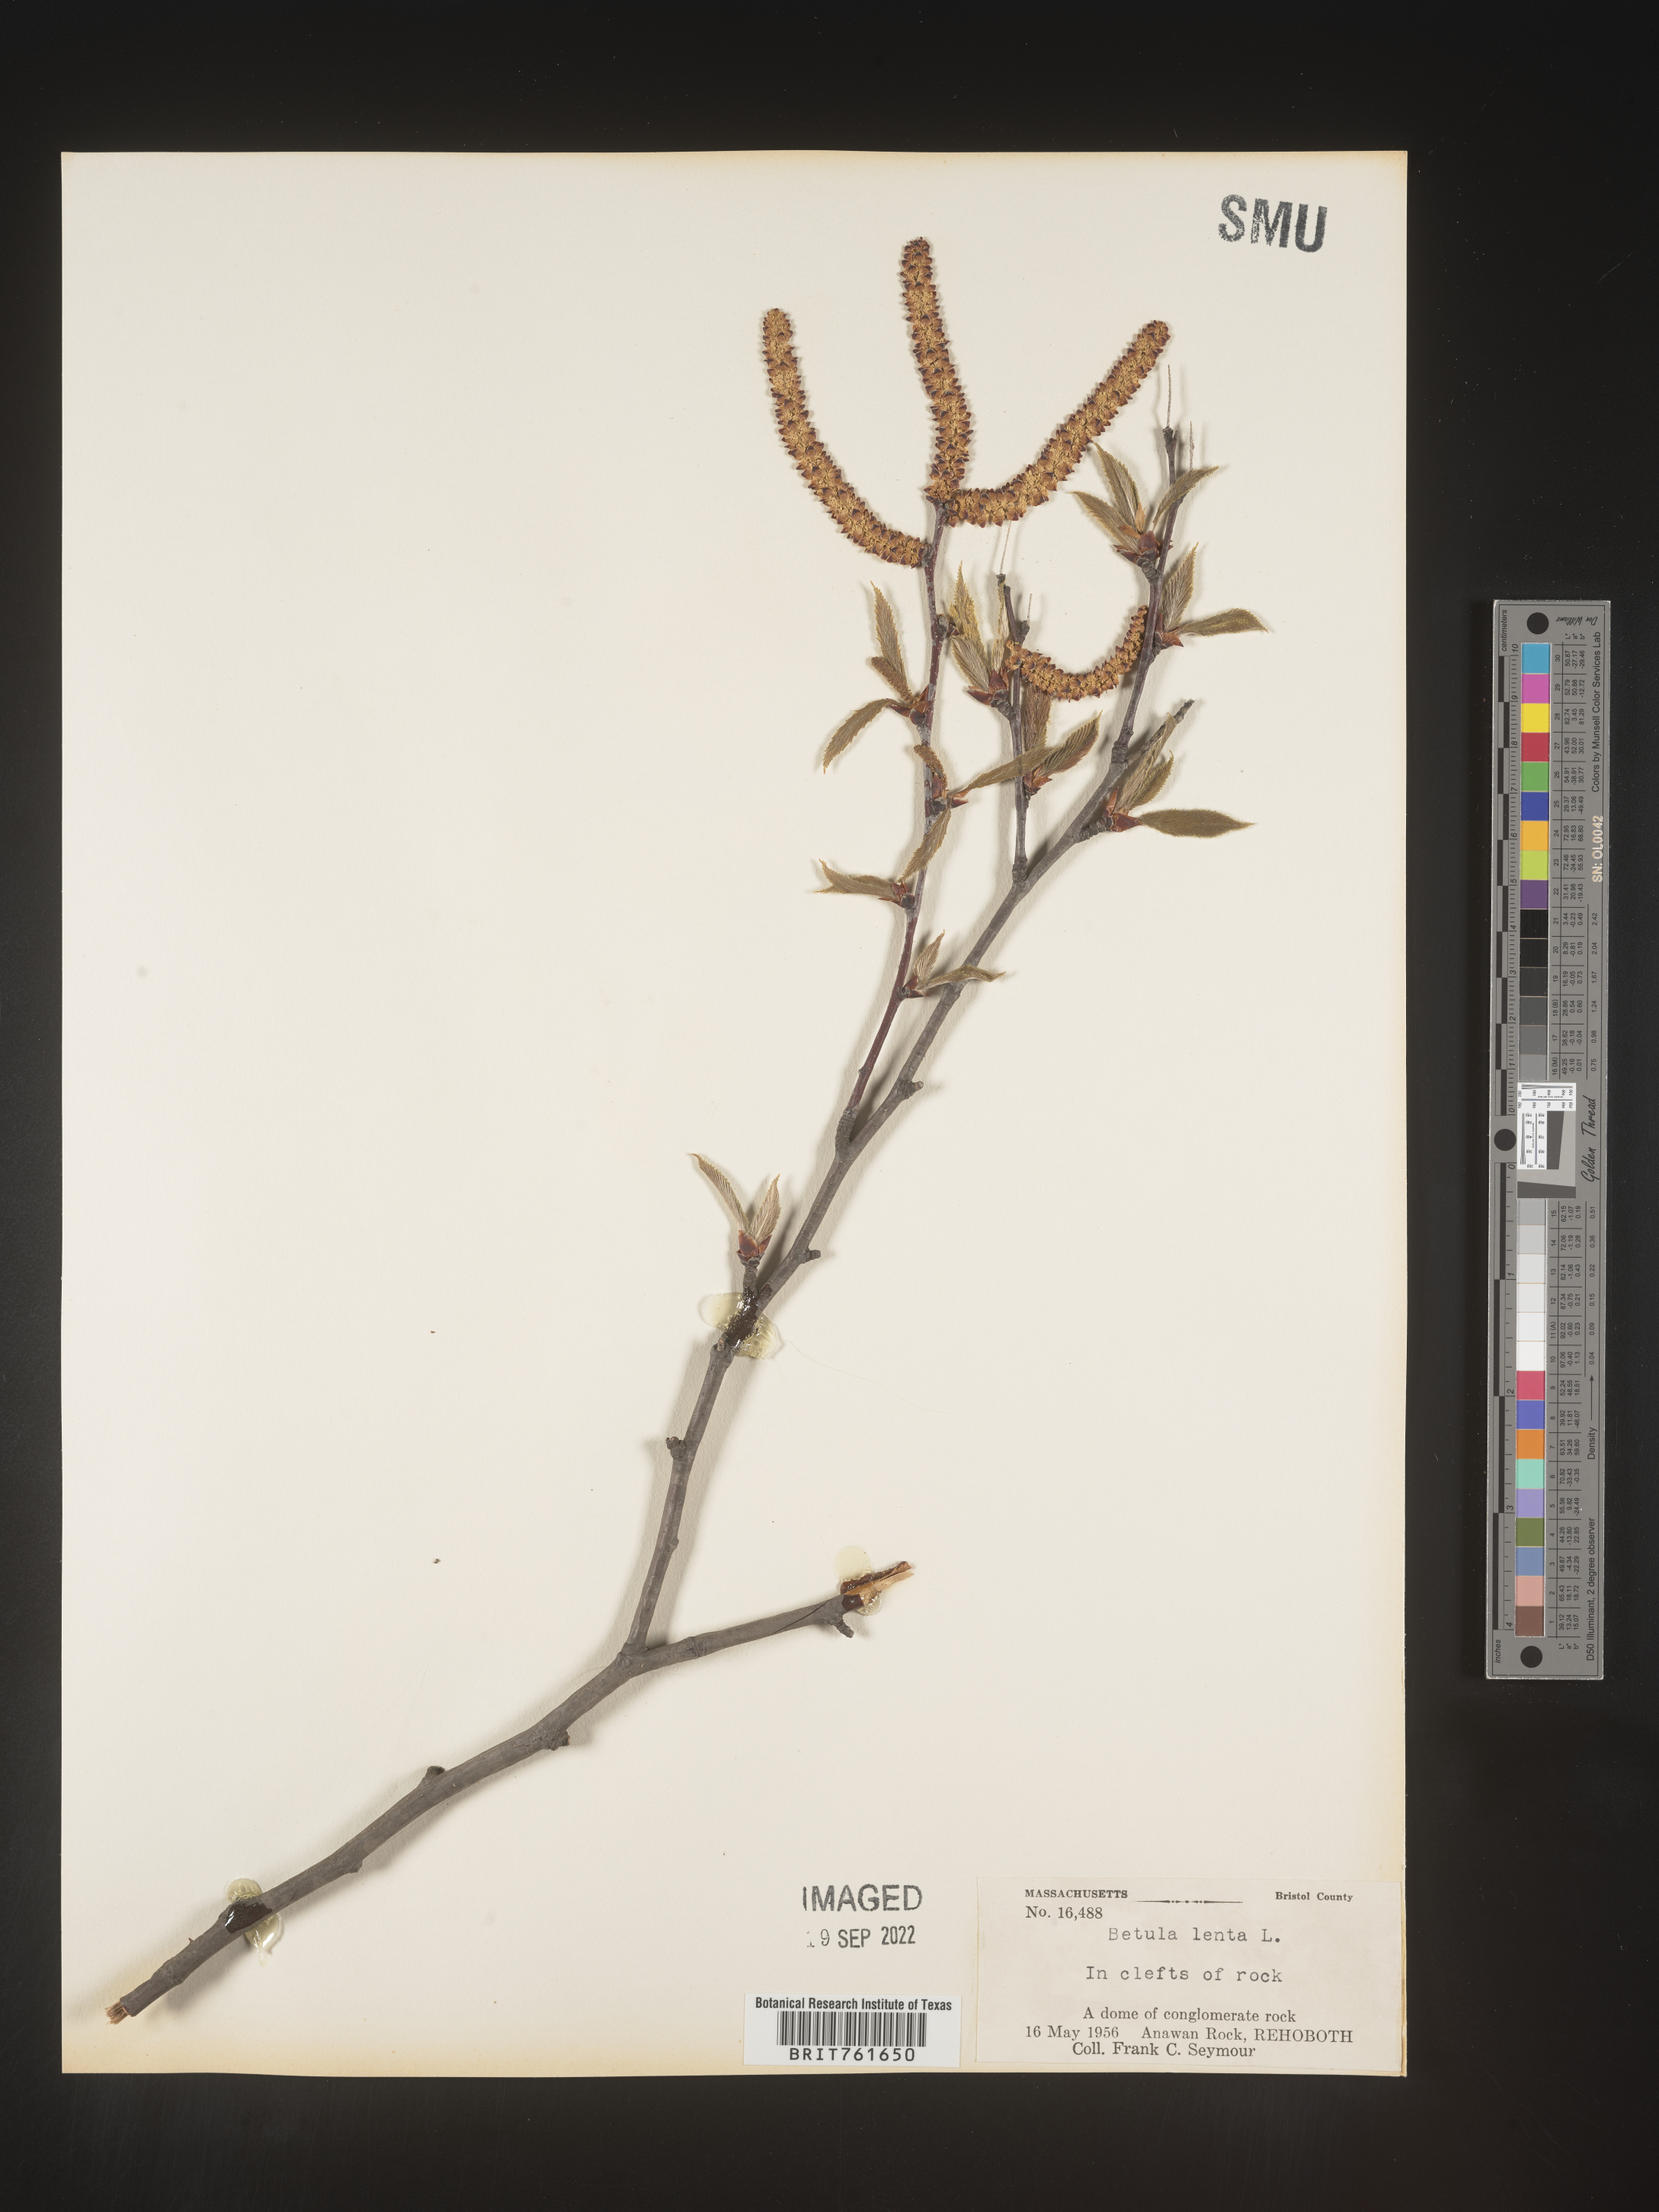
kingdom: Plantae
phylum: Tracheophyta
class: Magnoliopsida
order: Fagales
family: Betulaceae
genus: Betula
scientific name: Betula lenta
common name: Black birch
